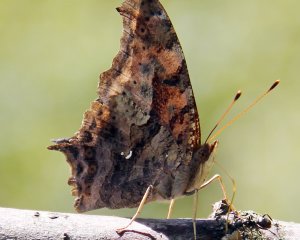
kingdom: Animalia
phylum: Arthropoda
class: Insecta
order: Lepidoptera
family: Nymphalidae
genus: Polygonia
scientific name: Polygonia interrogationis
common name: Question Mark
